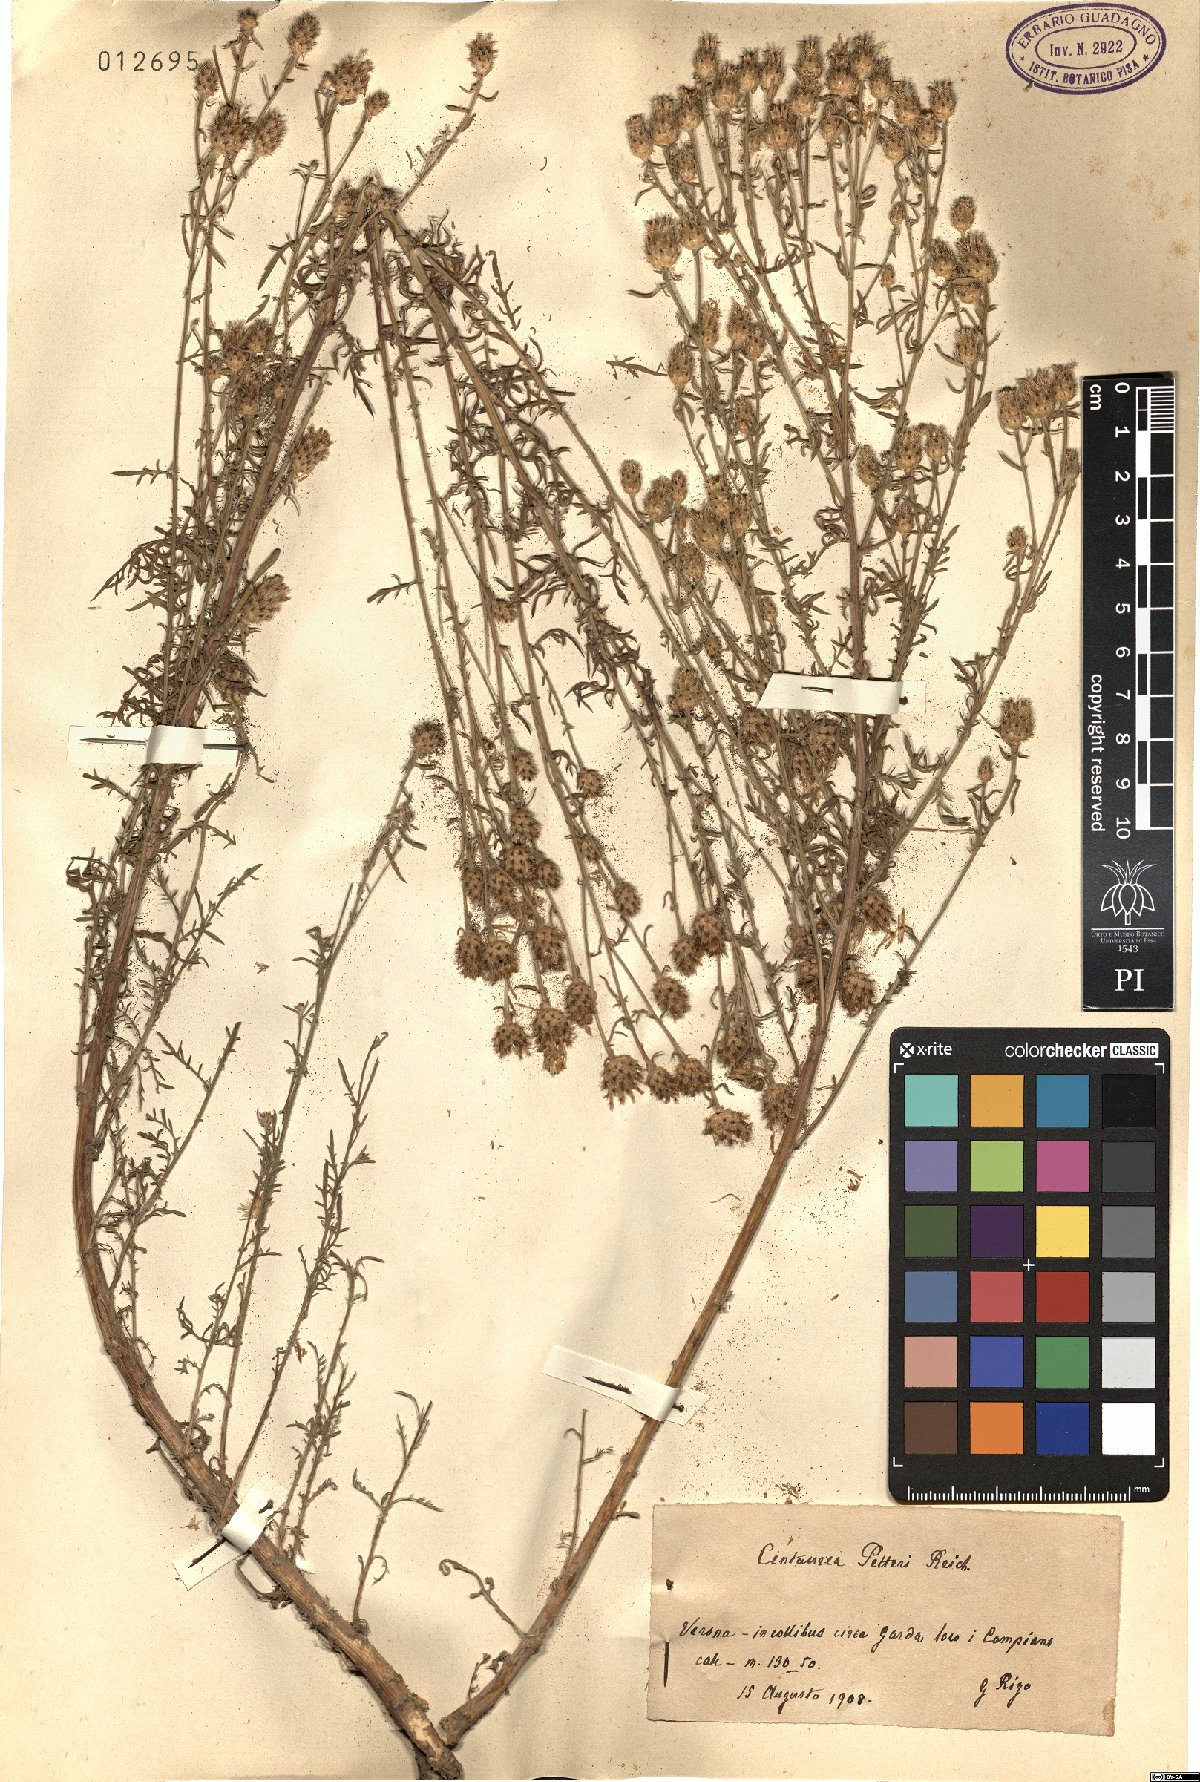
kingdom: Plantae
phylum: Tracheophyta
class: Magnoliopsida
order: Asterales
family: Asteraceae
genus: Centaurea
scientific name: Centaurea glaberrima
